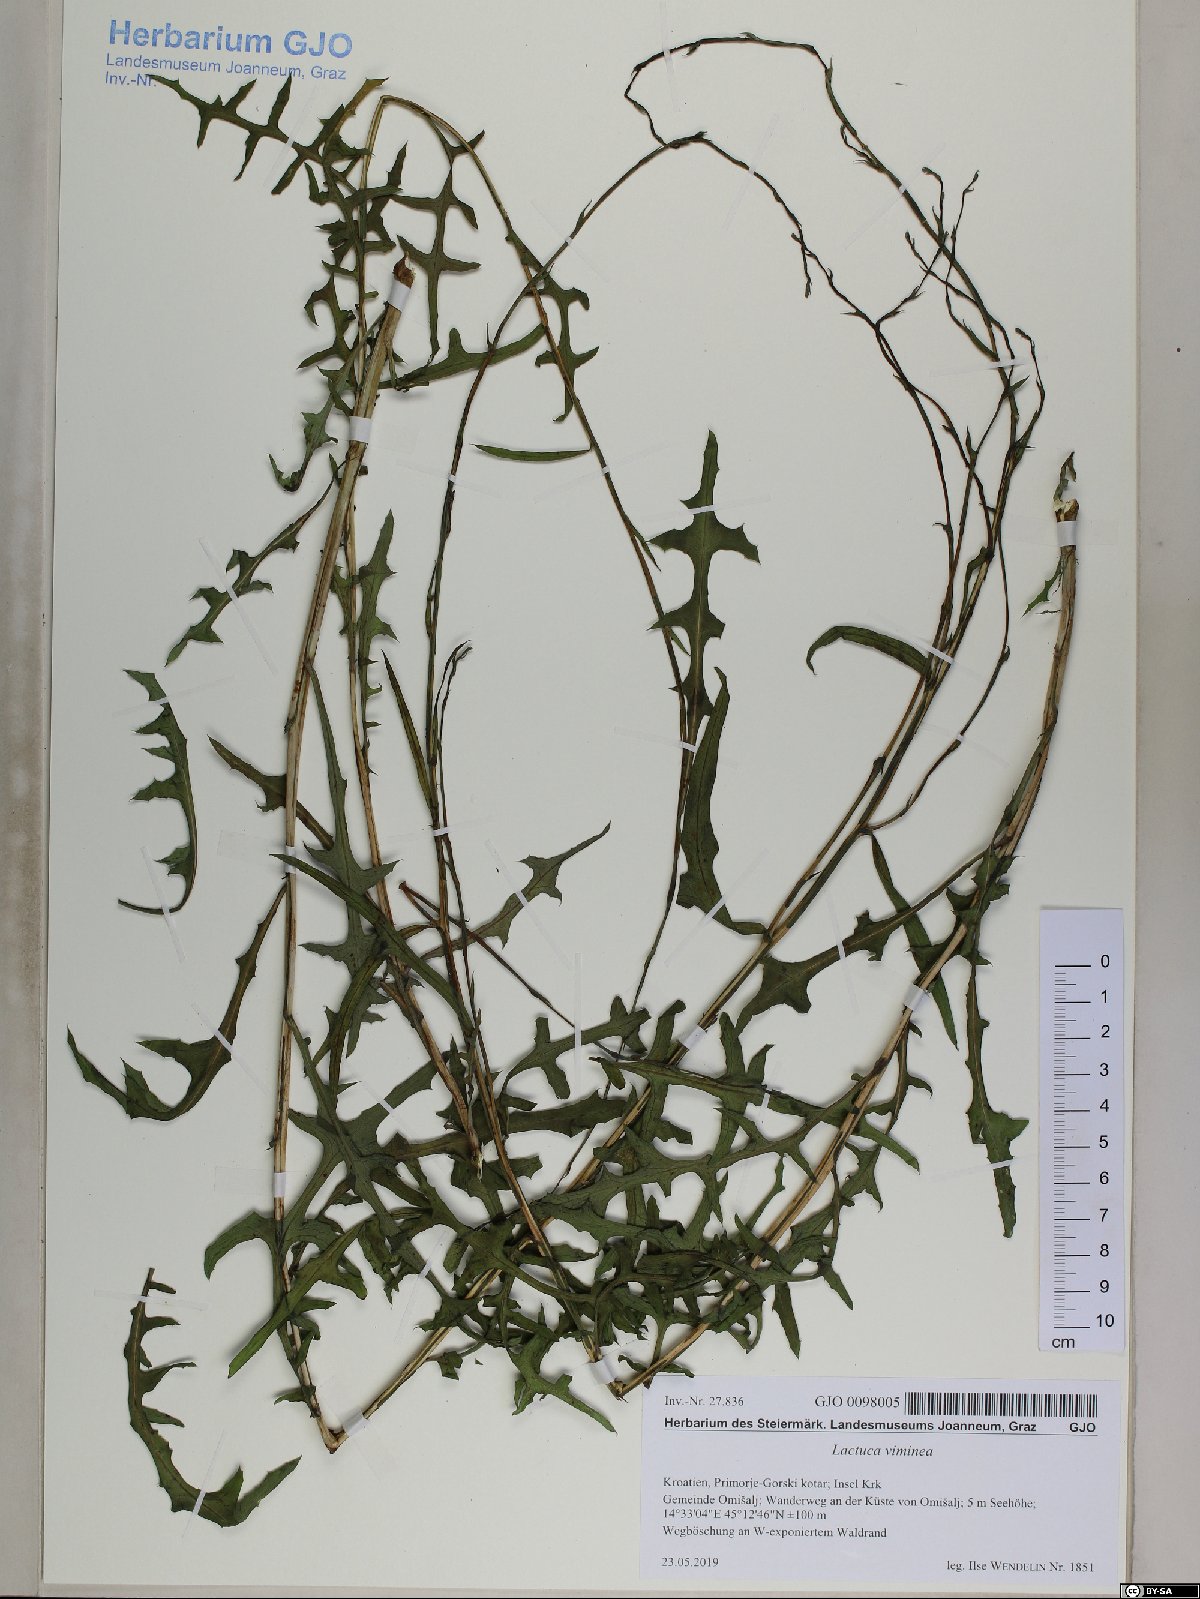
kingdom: Plantae
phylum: Tracheophyta
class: Magnoliopsida
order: Asterales
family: Asteraceae
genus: Lactuca
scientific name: Lactuca viminea
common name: Pliant lettuce
